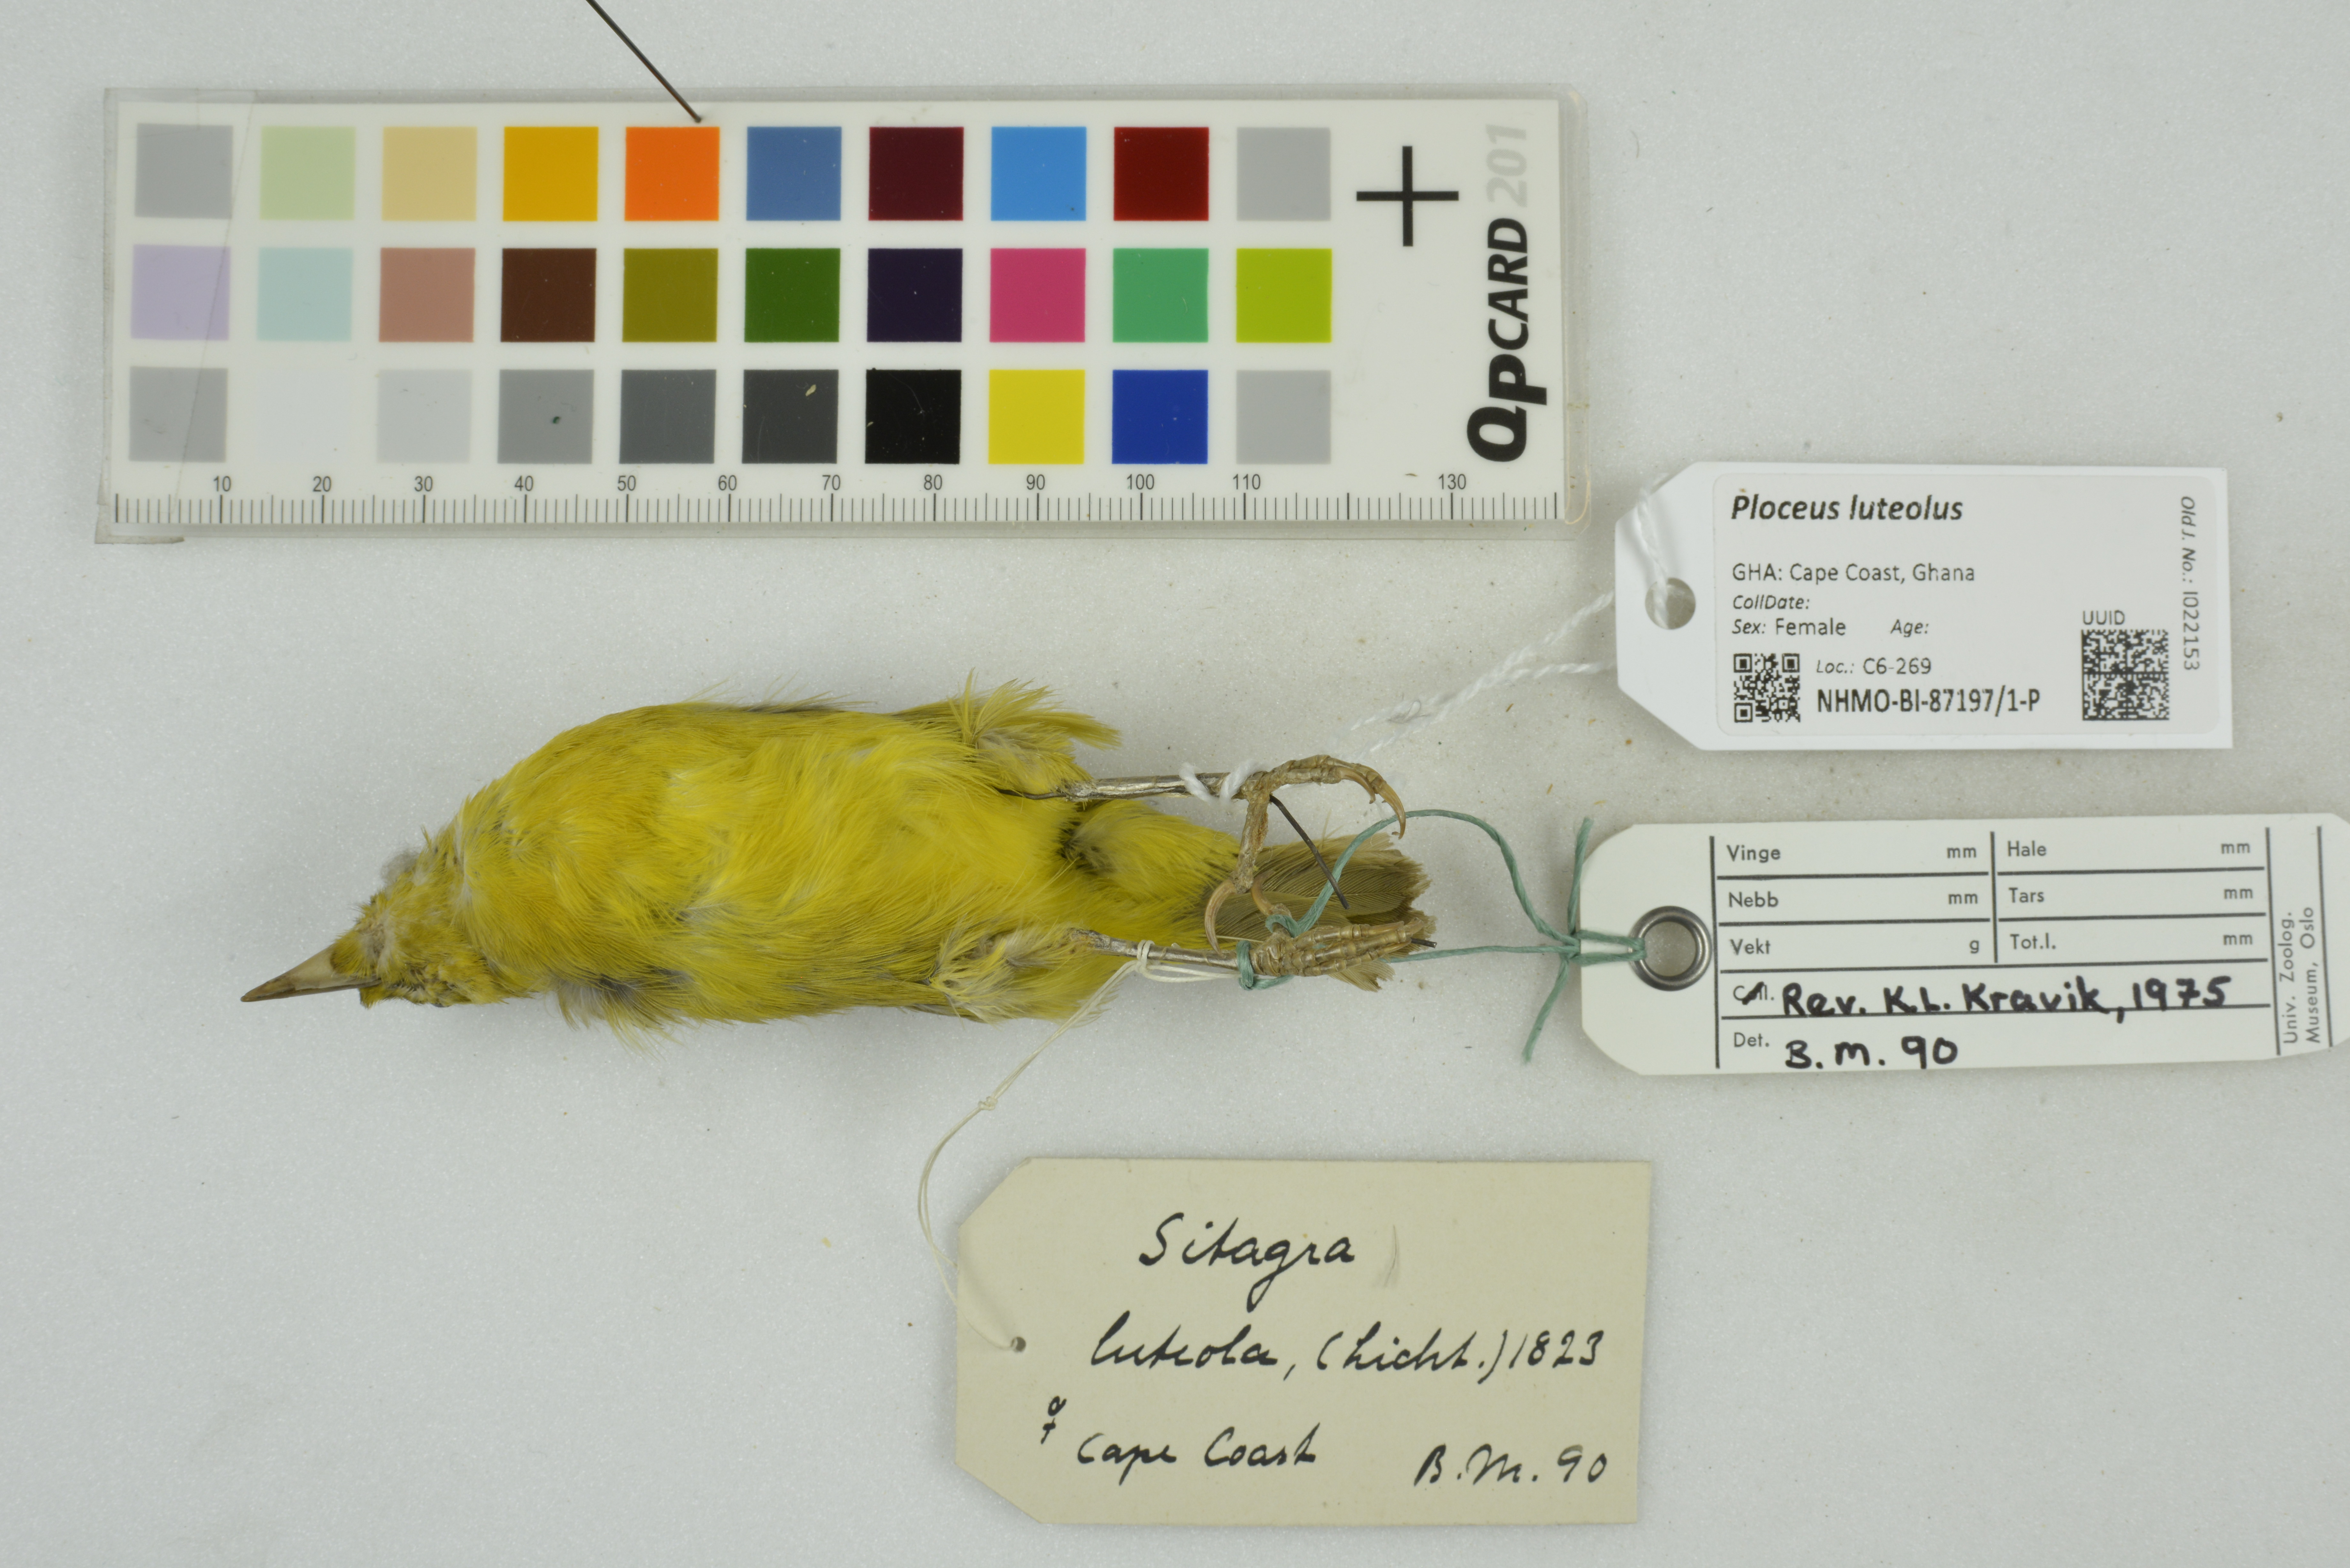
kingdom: Animalia
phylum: Chordata
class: Aves
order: Passeriformes
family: Ploceidae
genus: Ploceus
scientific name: Ploceus luteolus
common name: Little weaver
